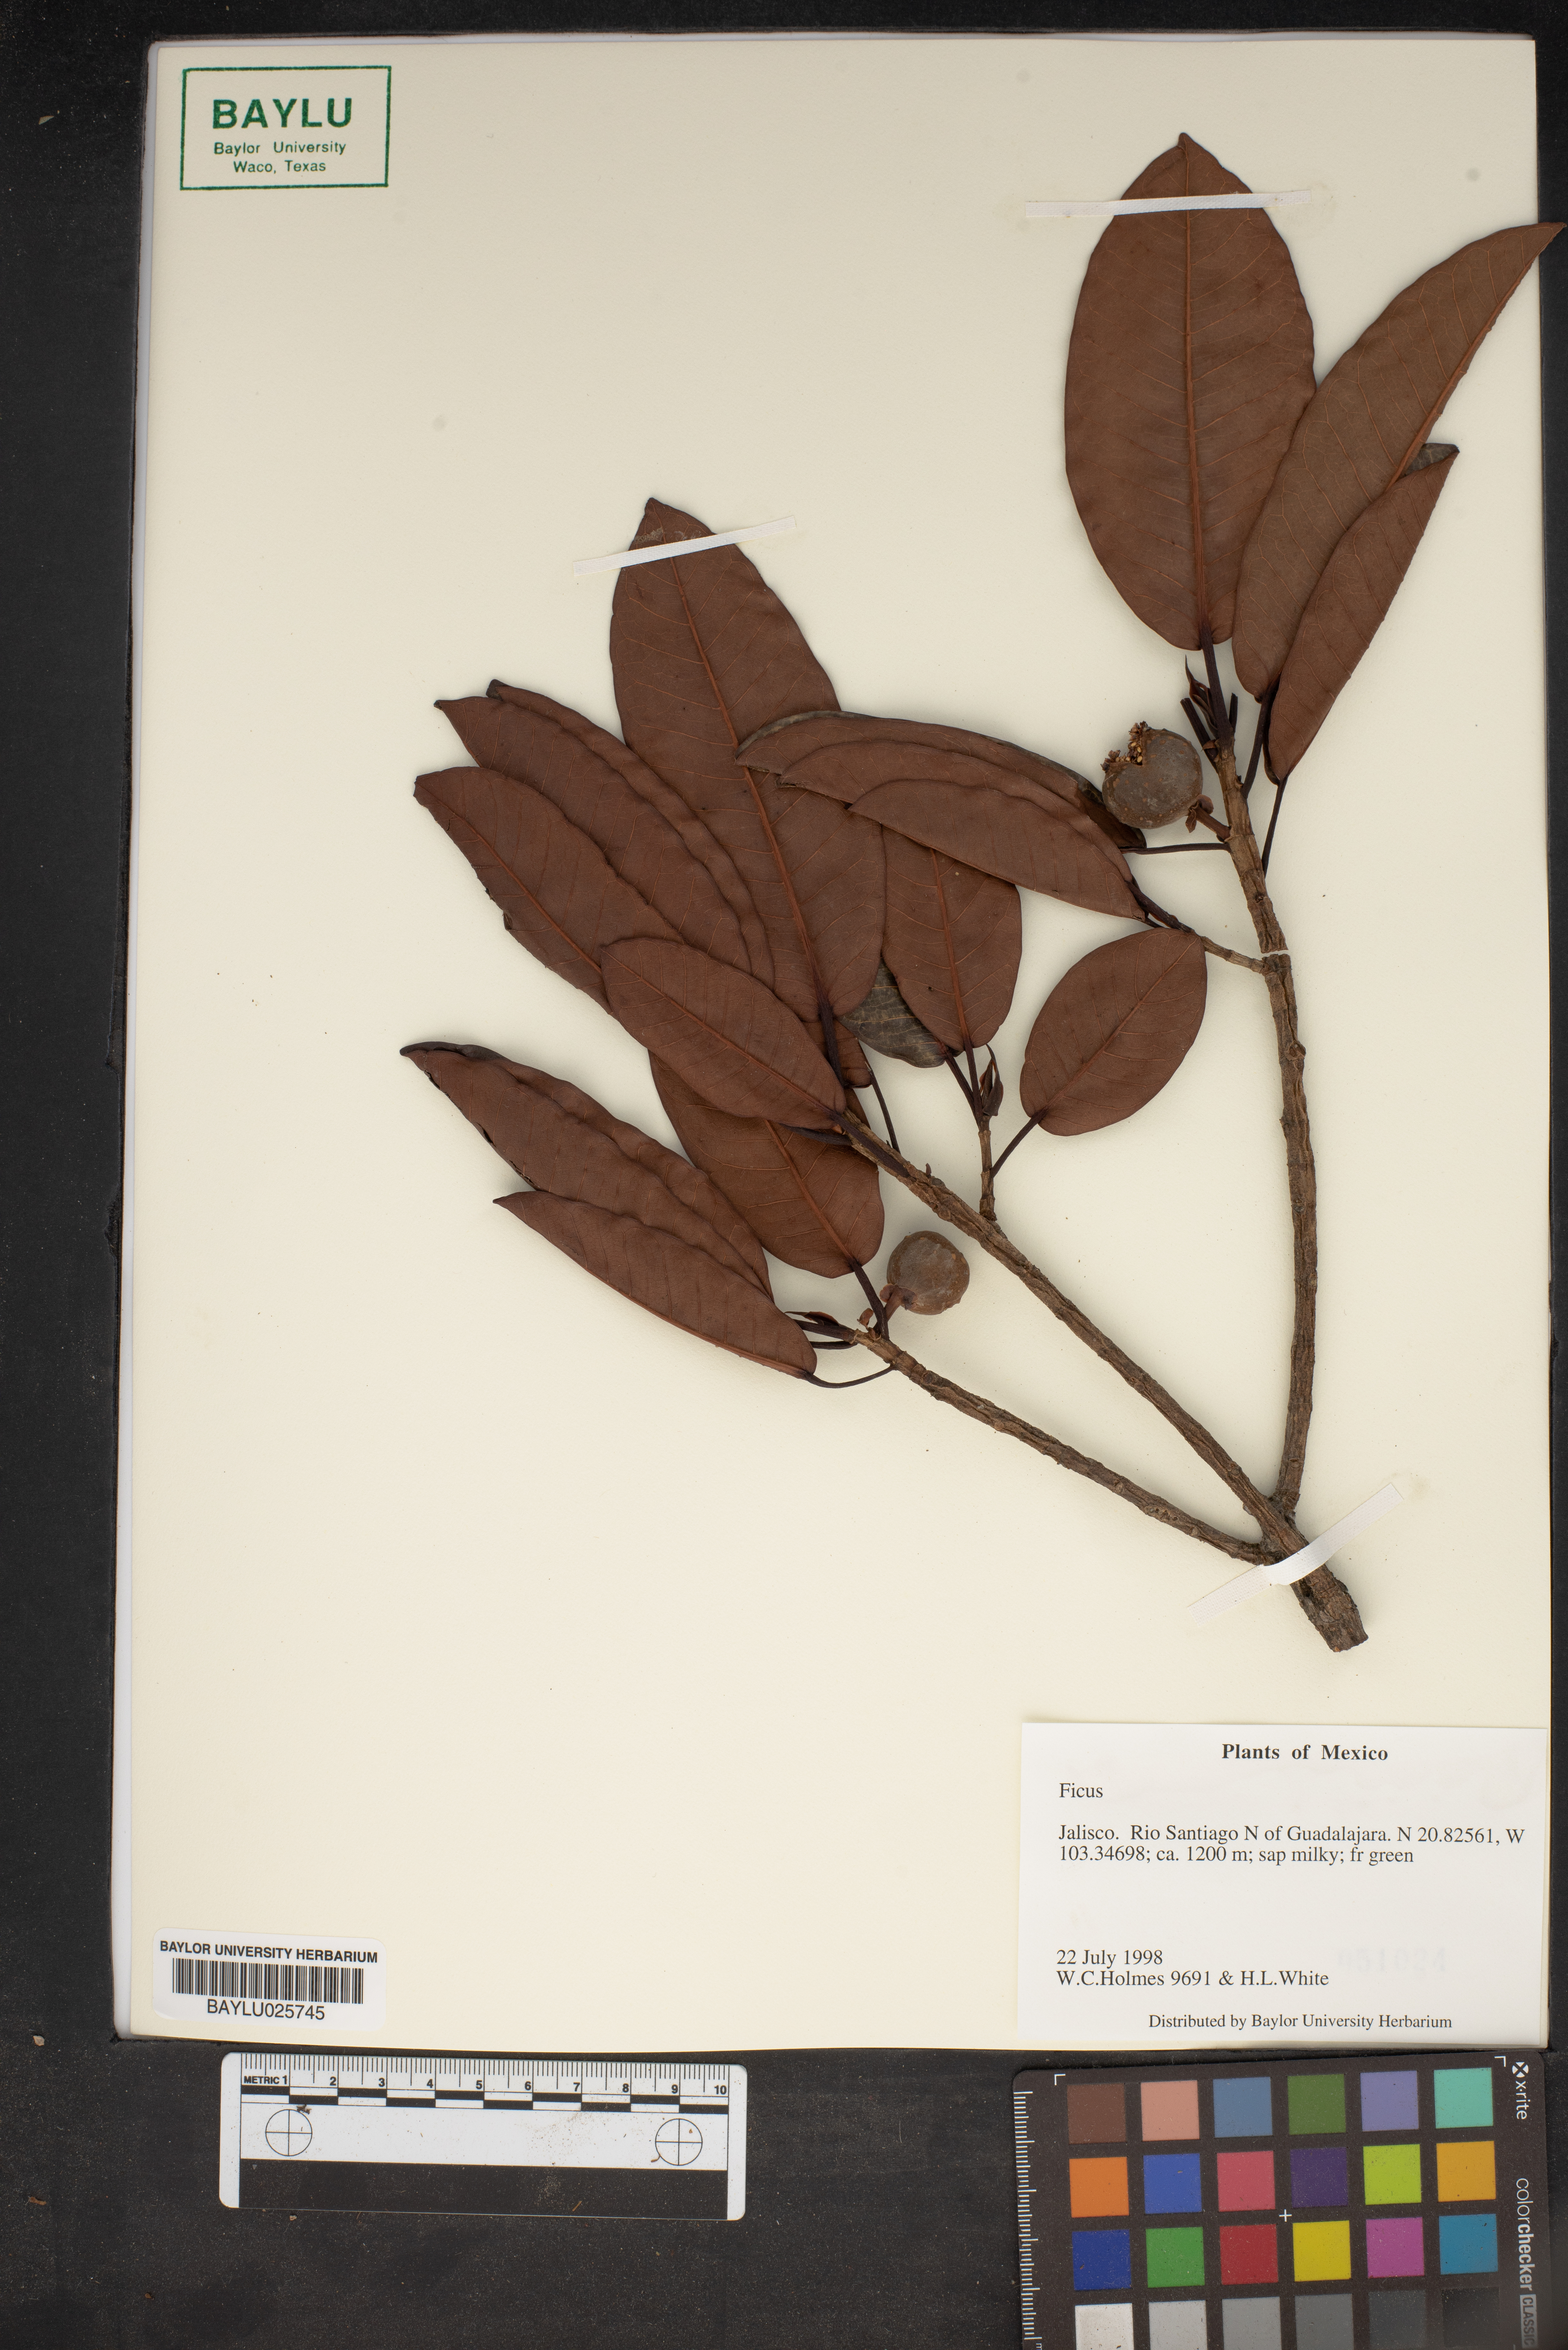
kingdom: Plantae
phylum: Tracheophyta
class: Magnoliopsida
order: Rosales
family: Moraceae
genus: Ficus
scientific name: Ficus
